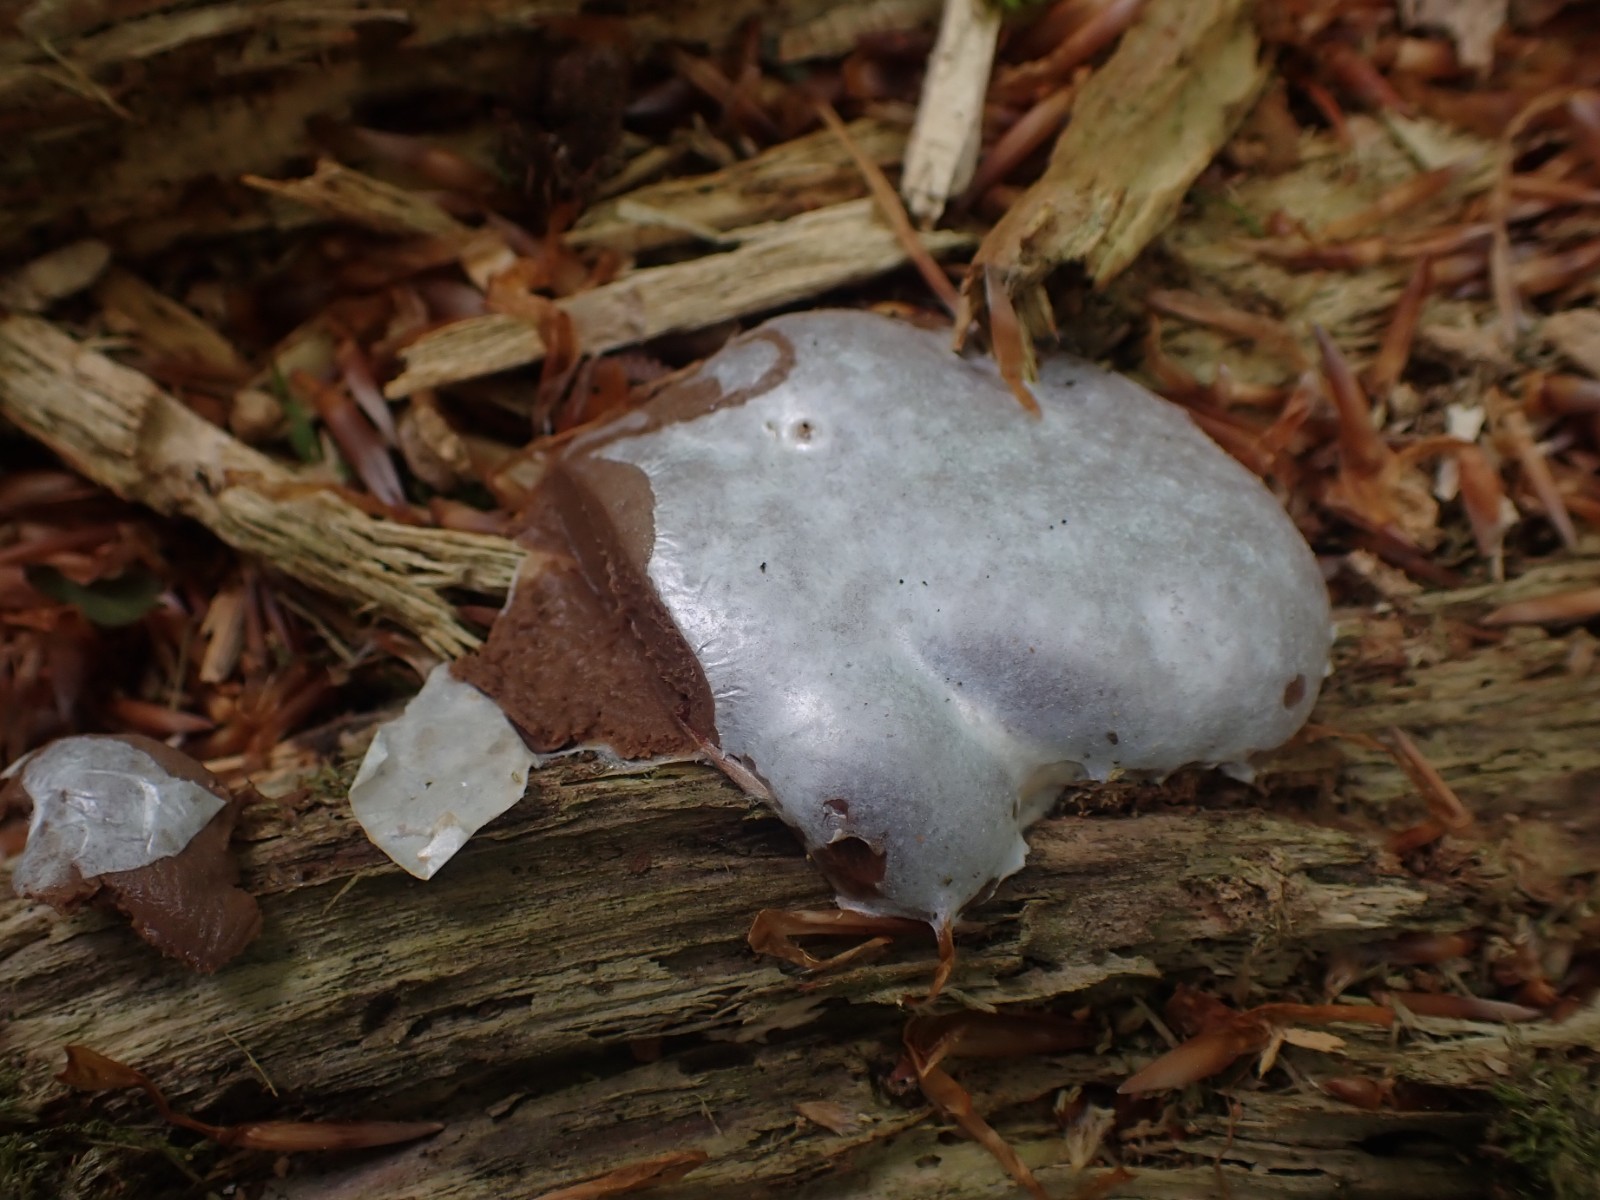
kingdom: Protozoa
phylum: Mycetozoa
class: Myxomycetes
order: Cribrariales
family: Tubiferaceae
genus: Reticularia
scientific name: Reticularia lycoperdon
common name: skinnende støvpude
